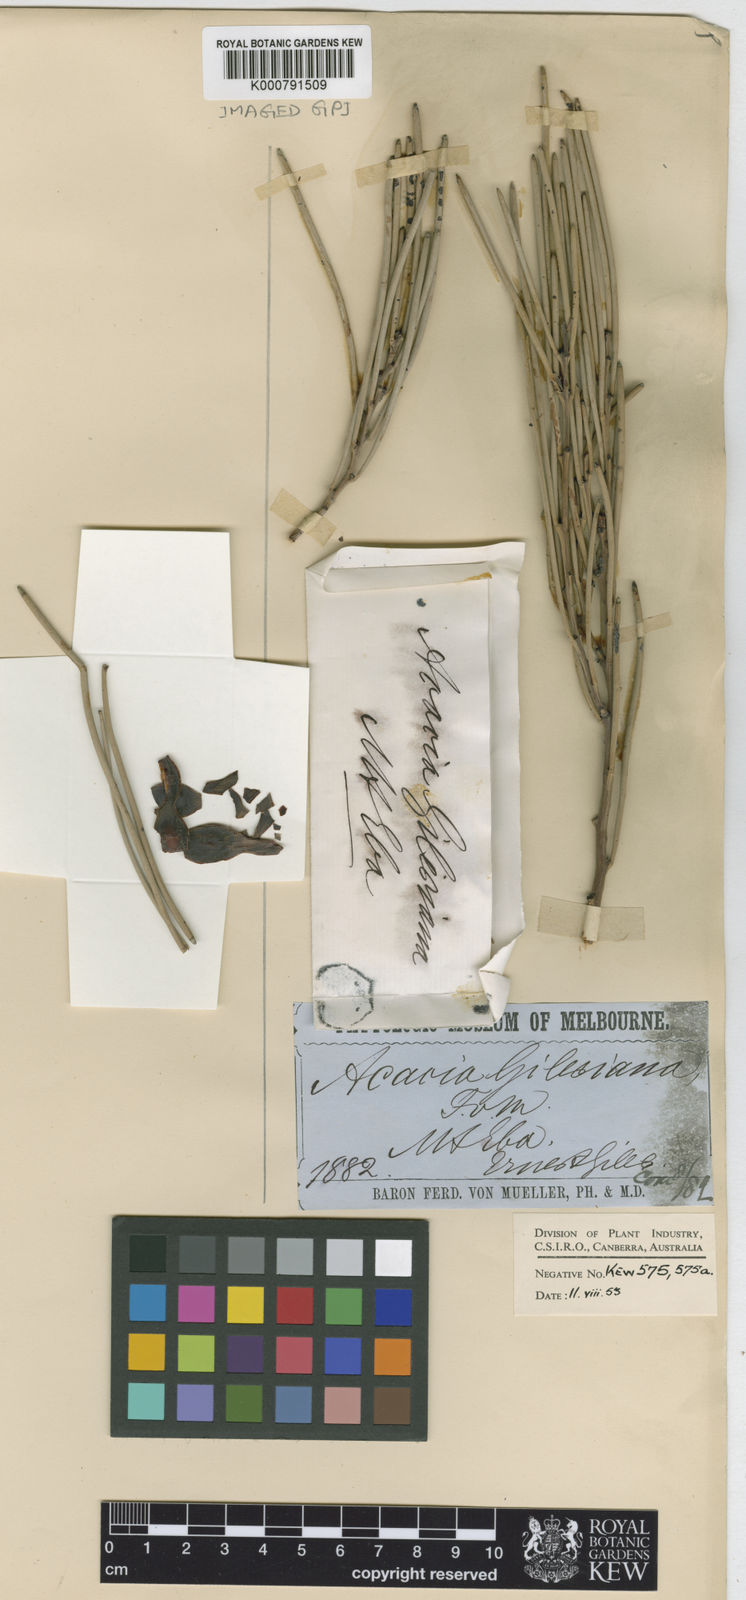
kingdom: Plantae
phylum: Tracheophyta
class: Magnoliopsida
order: Fabales
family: Fabaceae
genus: Acacia
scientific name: Acacia gilesiana
